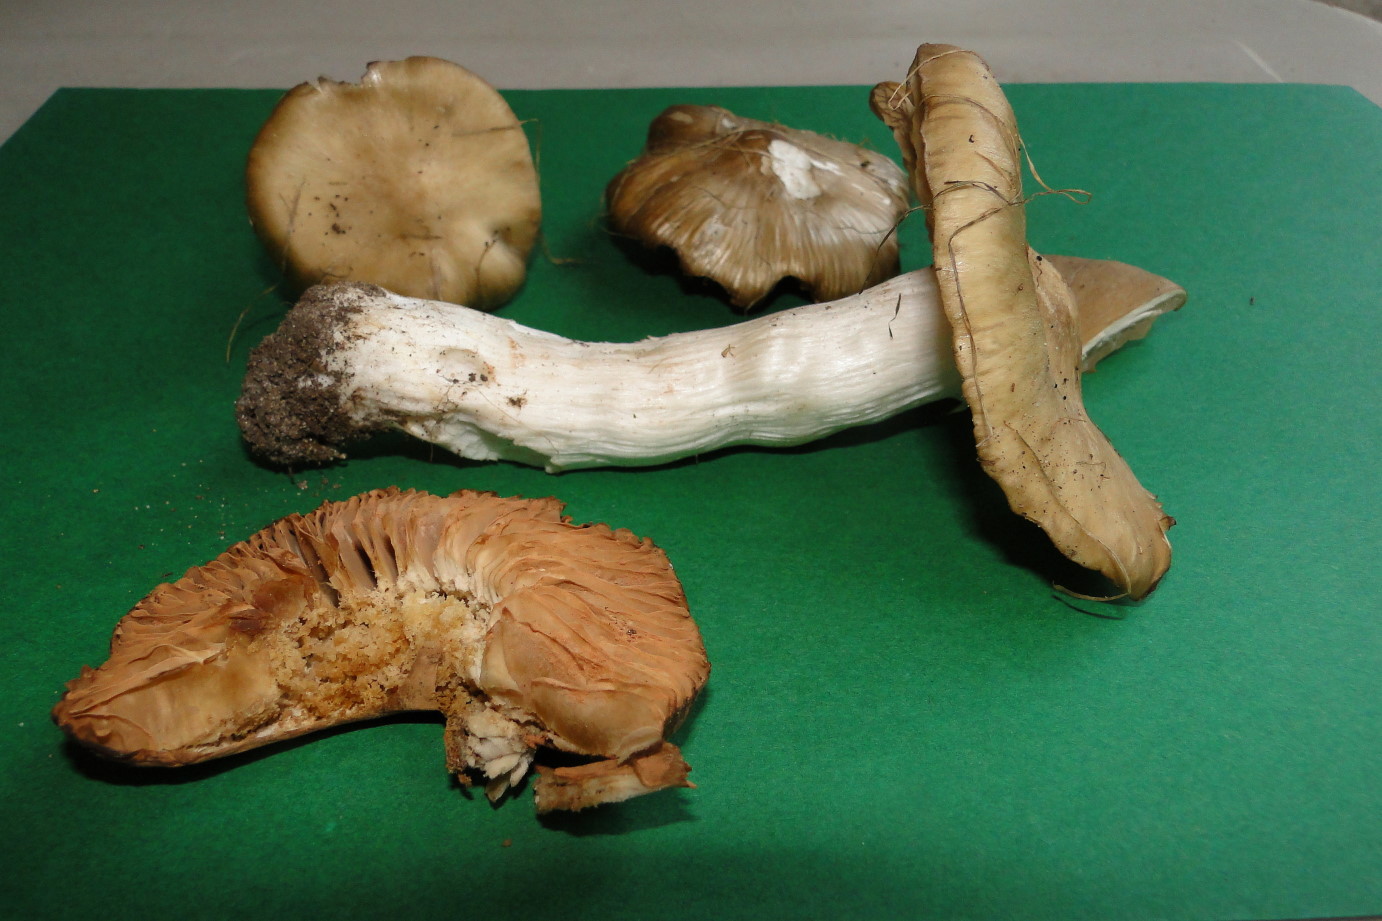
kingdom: Fungi
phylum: Basidiomycota
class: Agaricomycetes
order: Agaricales
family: Entolomataceae
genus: Entoloma
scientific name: Entoloma clypeatum
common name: flammet rødblad
